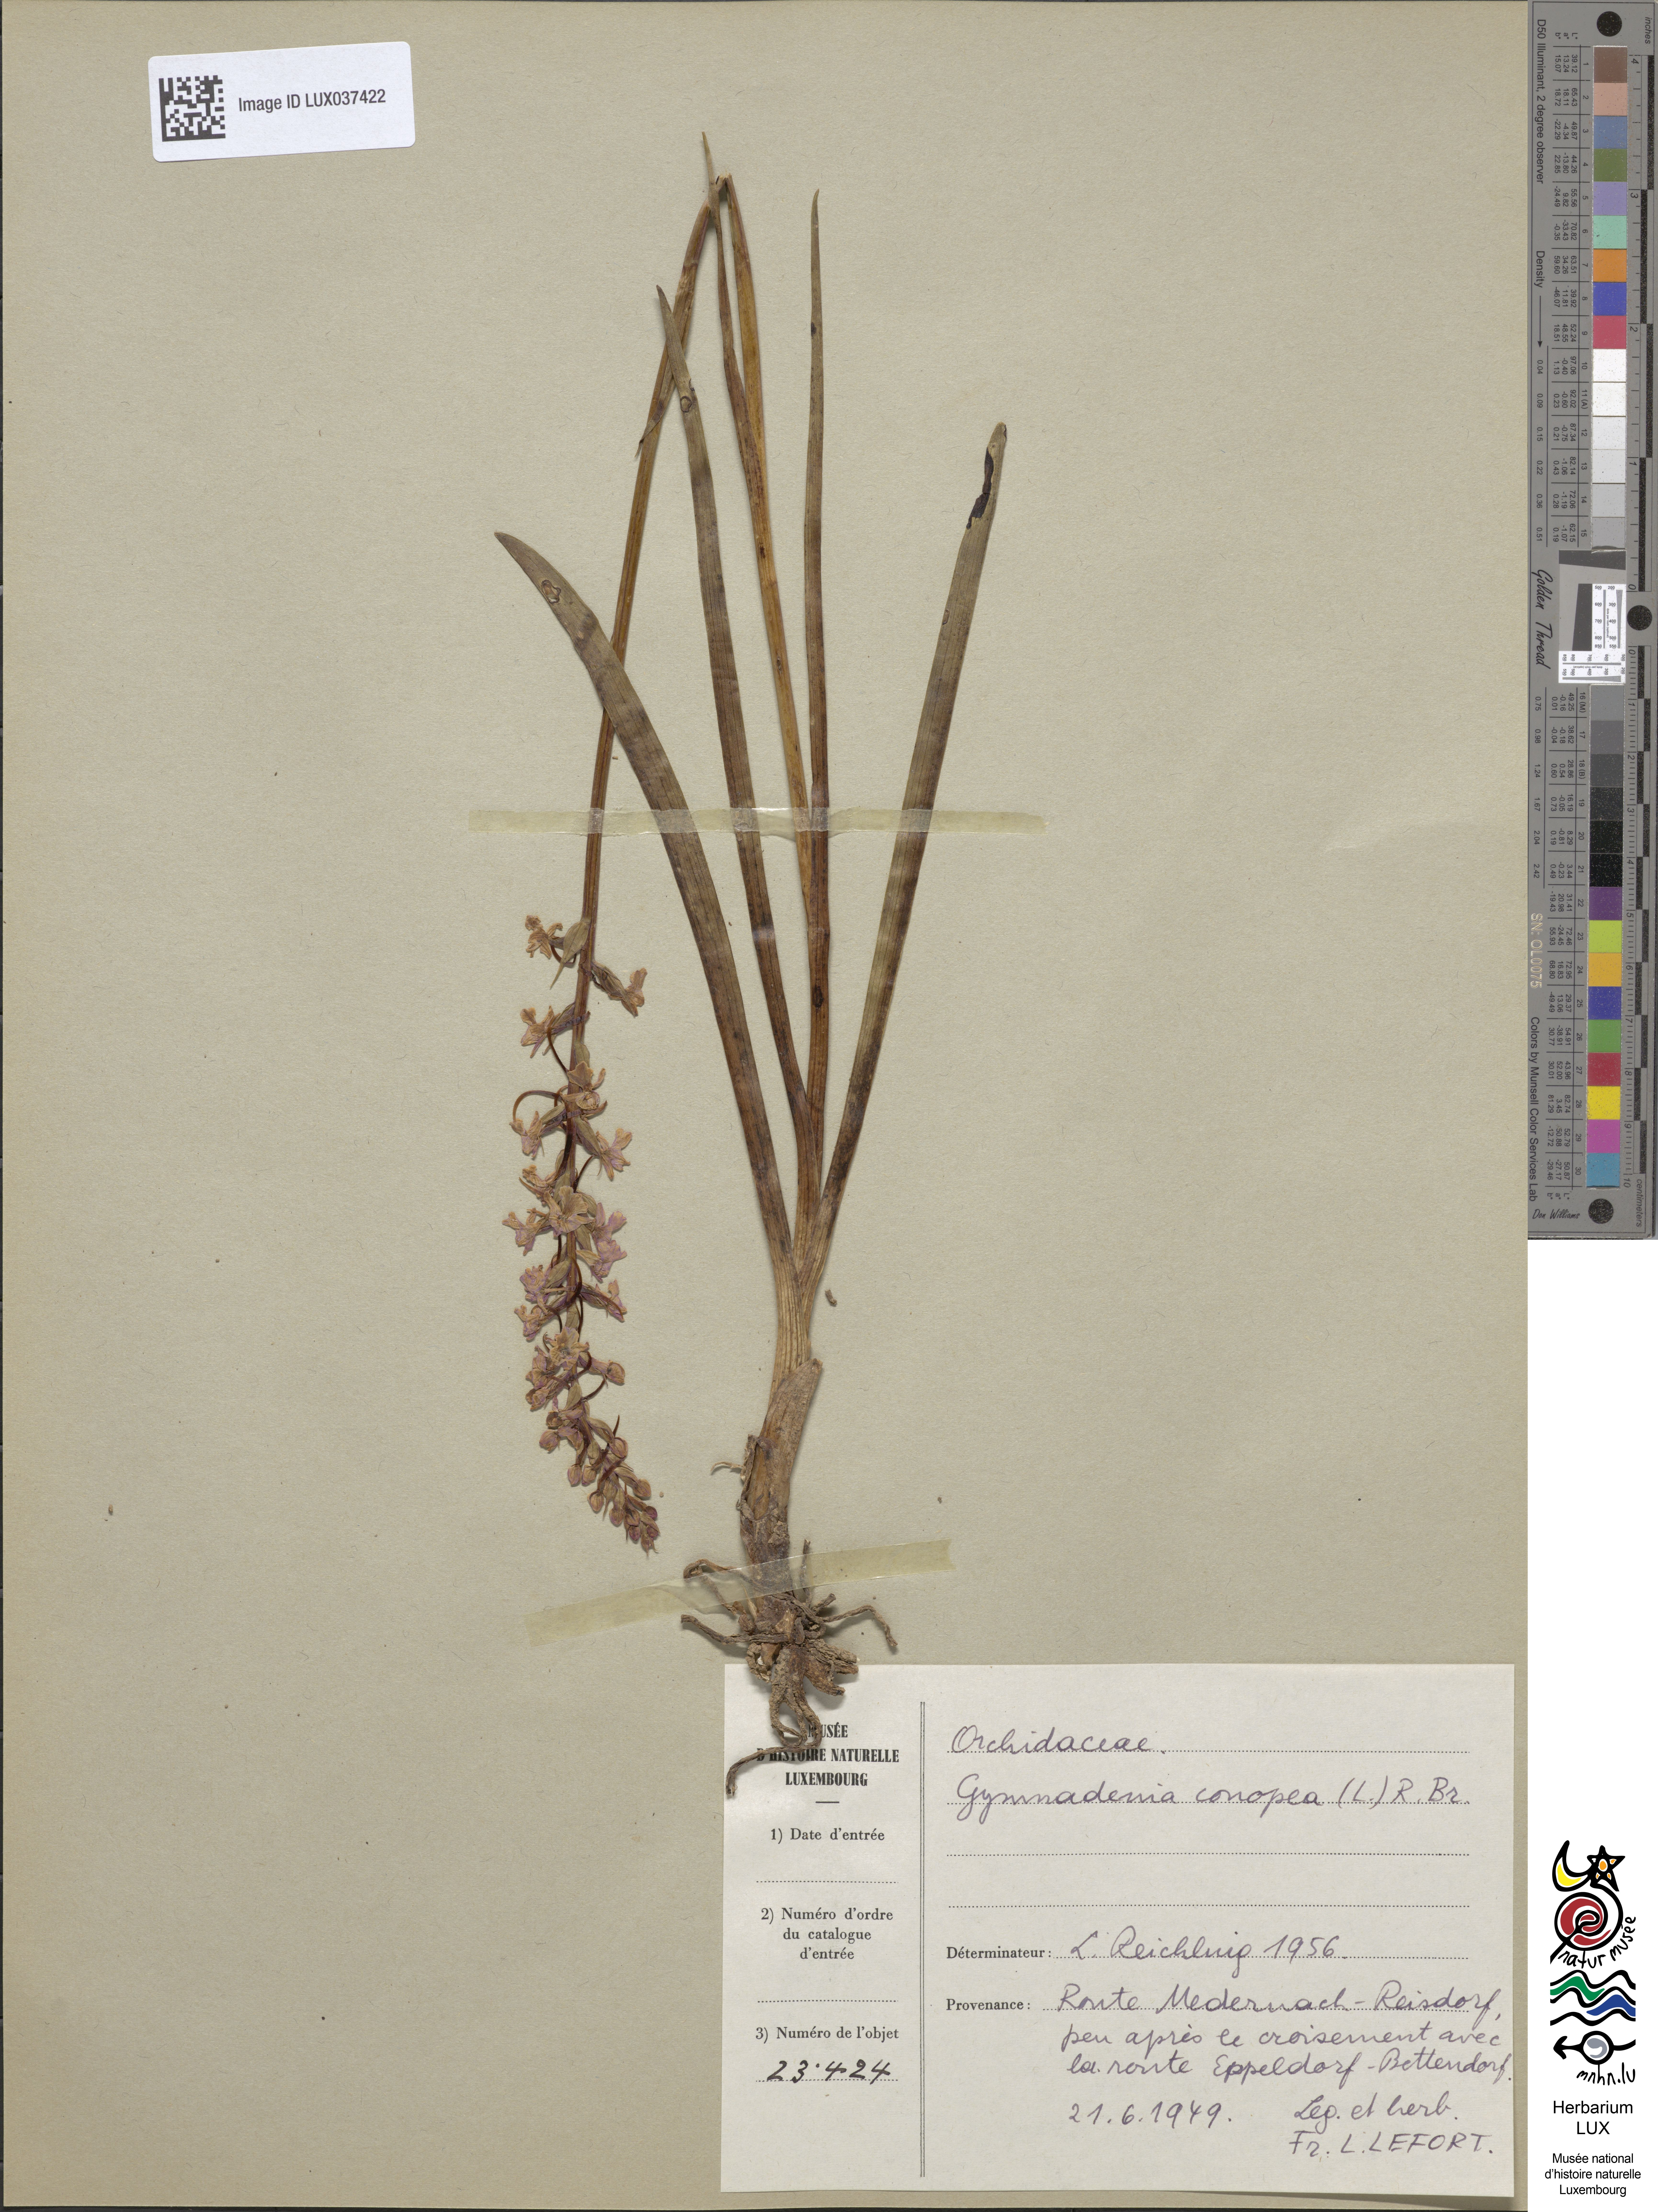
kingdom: Plantae
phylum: Tracheophyta
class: Liliopsida
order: Asparagales
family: Orchidaceae
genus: Gymnadenia
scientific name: Gymnadenia conopsea
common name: Fragrant orchid
